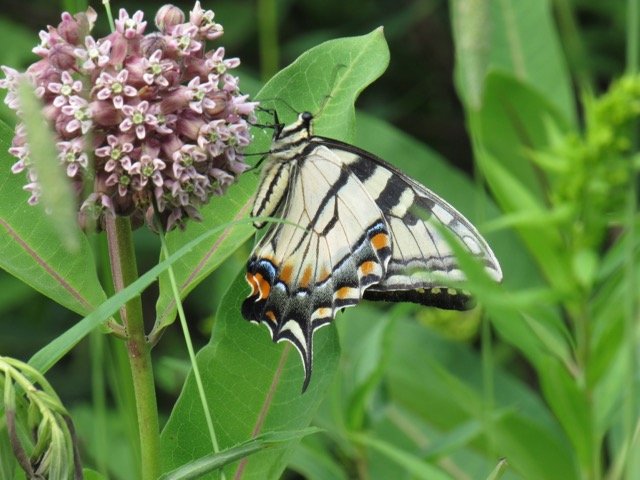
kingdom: Animalia
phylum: Arthropoda
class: Insecta
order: Lepidoptera
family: Papilionidae
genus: Pterourus
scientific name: Pterourus
